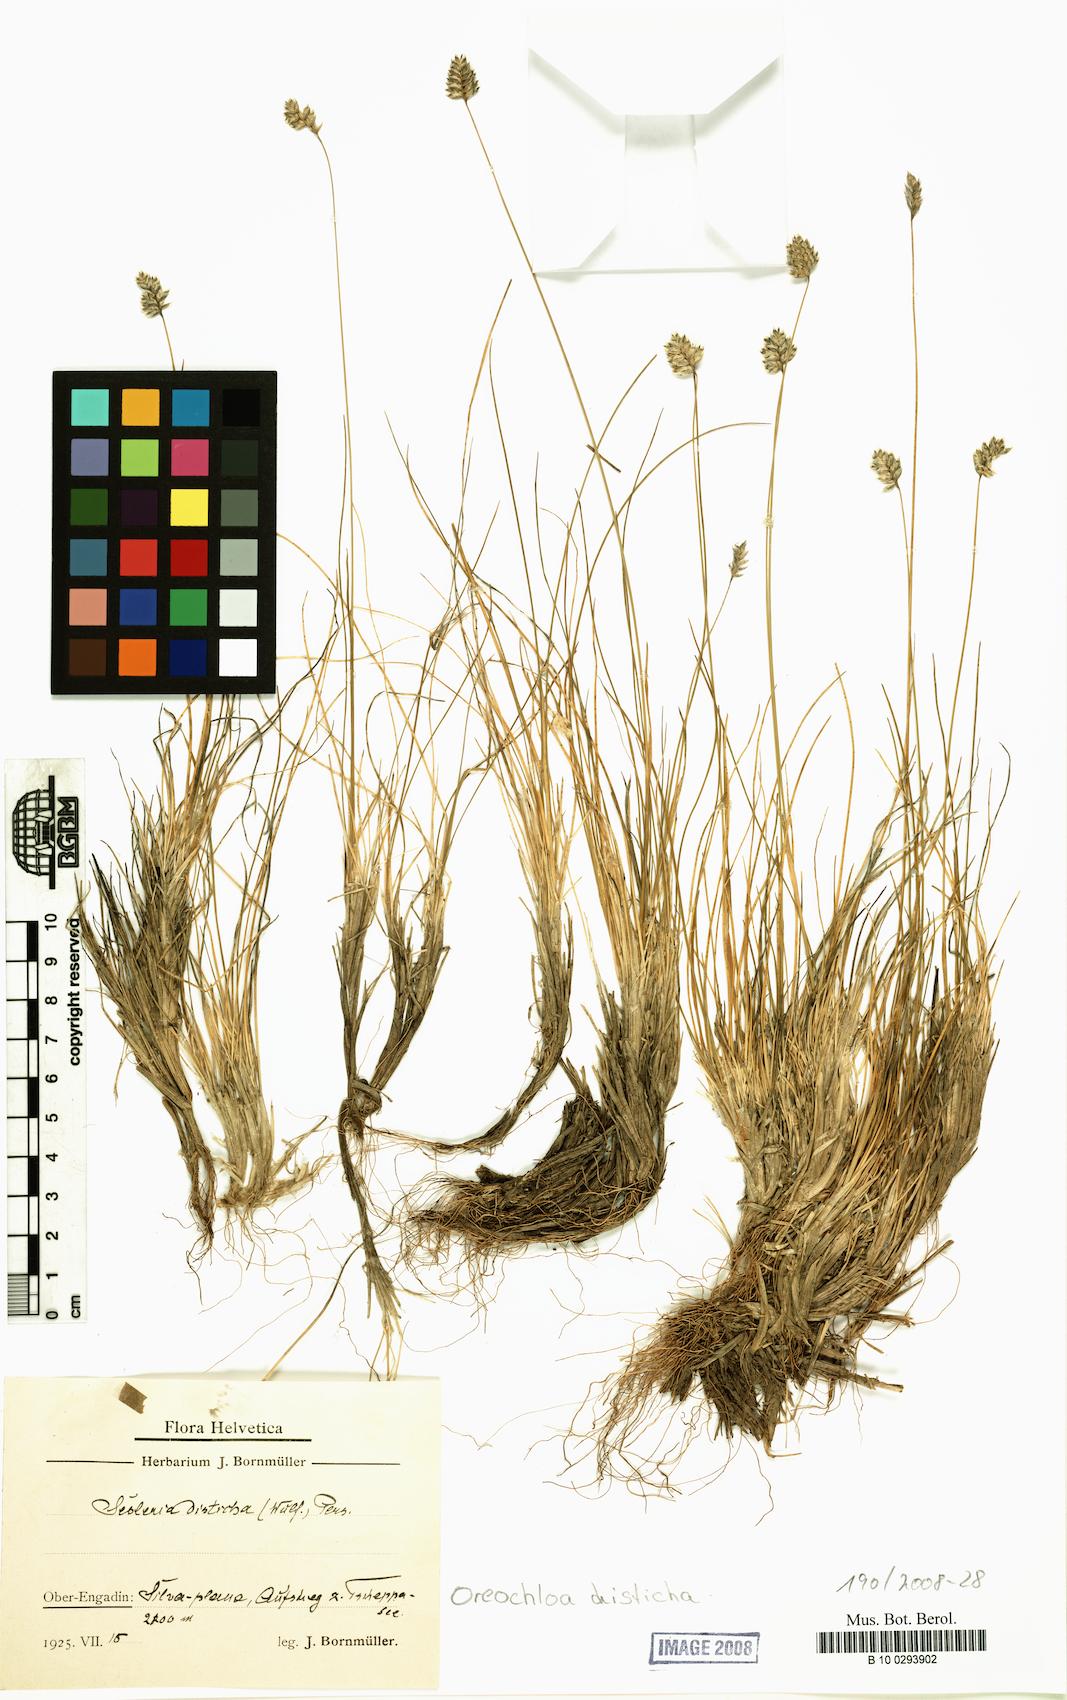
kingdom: Plantae
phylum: Tracheophyta
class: Liliopsida
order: Poales
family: Poaceae
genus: Oreochloa
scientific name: Oreochloa disticha
